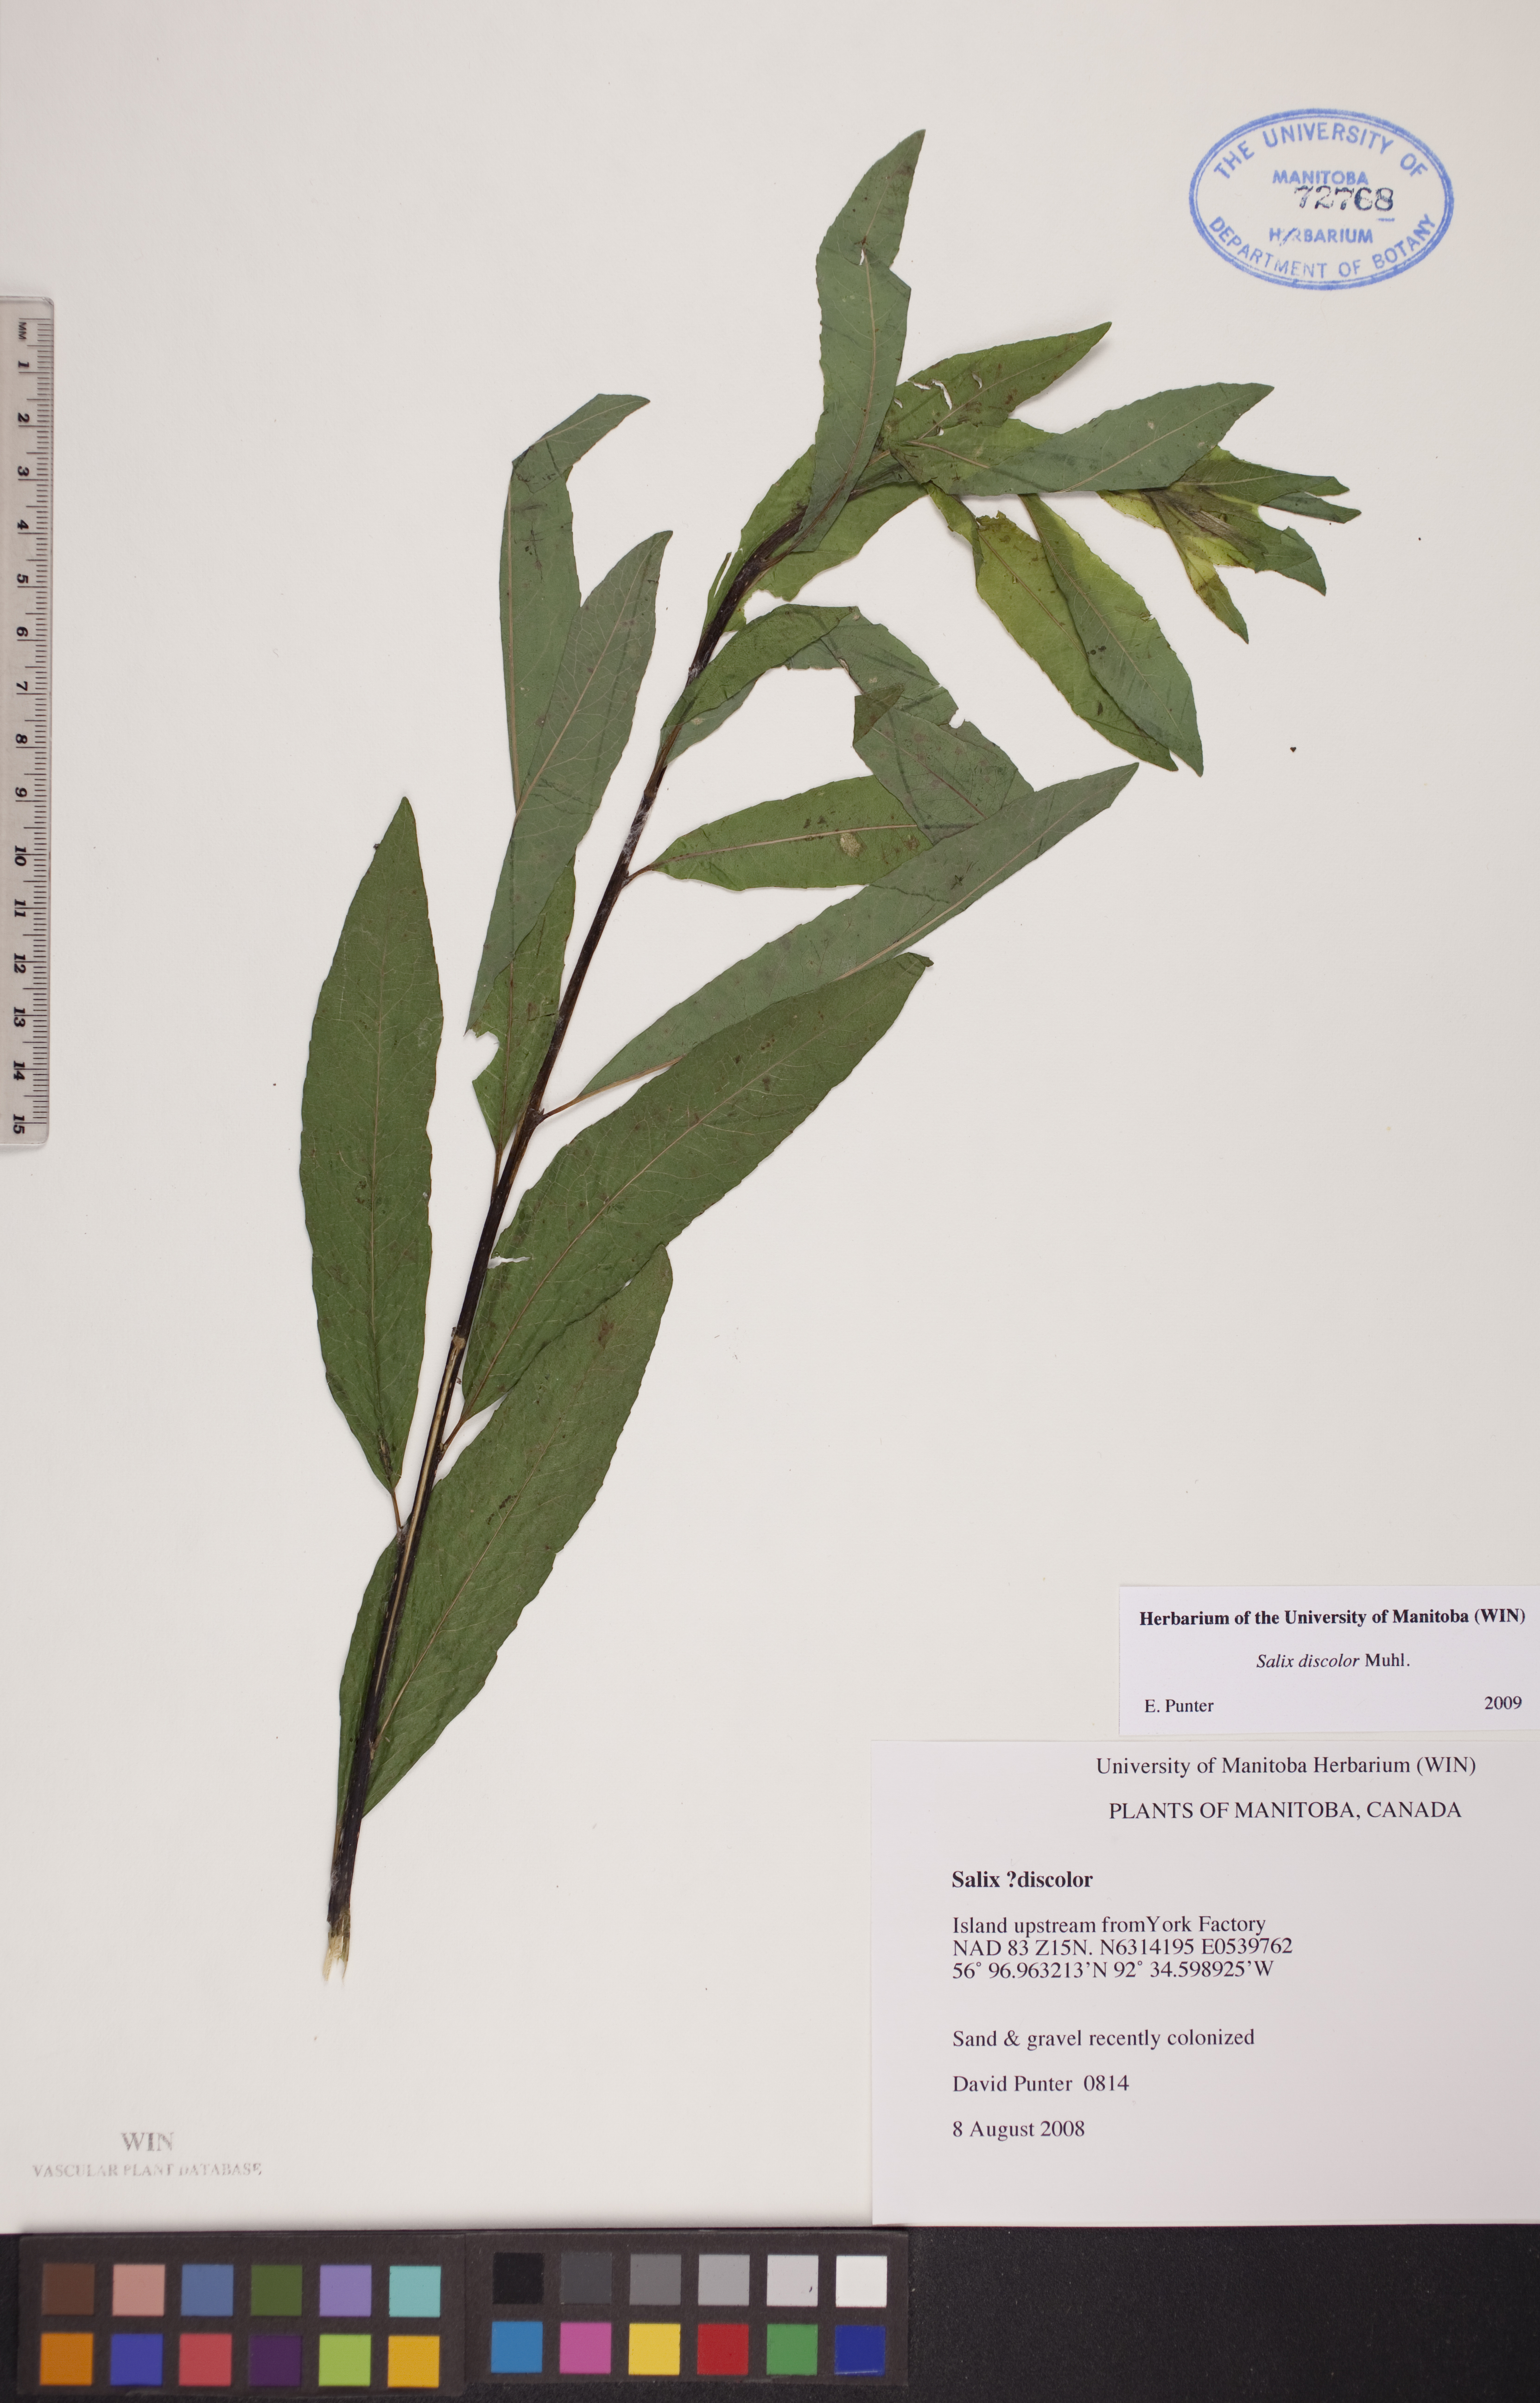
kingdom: Plantae
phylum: Tracheophyta
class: Magnoliopsida
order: Malpighiales
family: Salicaceae
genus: Salix
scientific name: Salix discolor
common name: Glaucous willow
